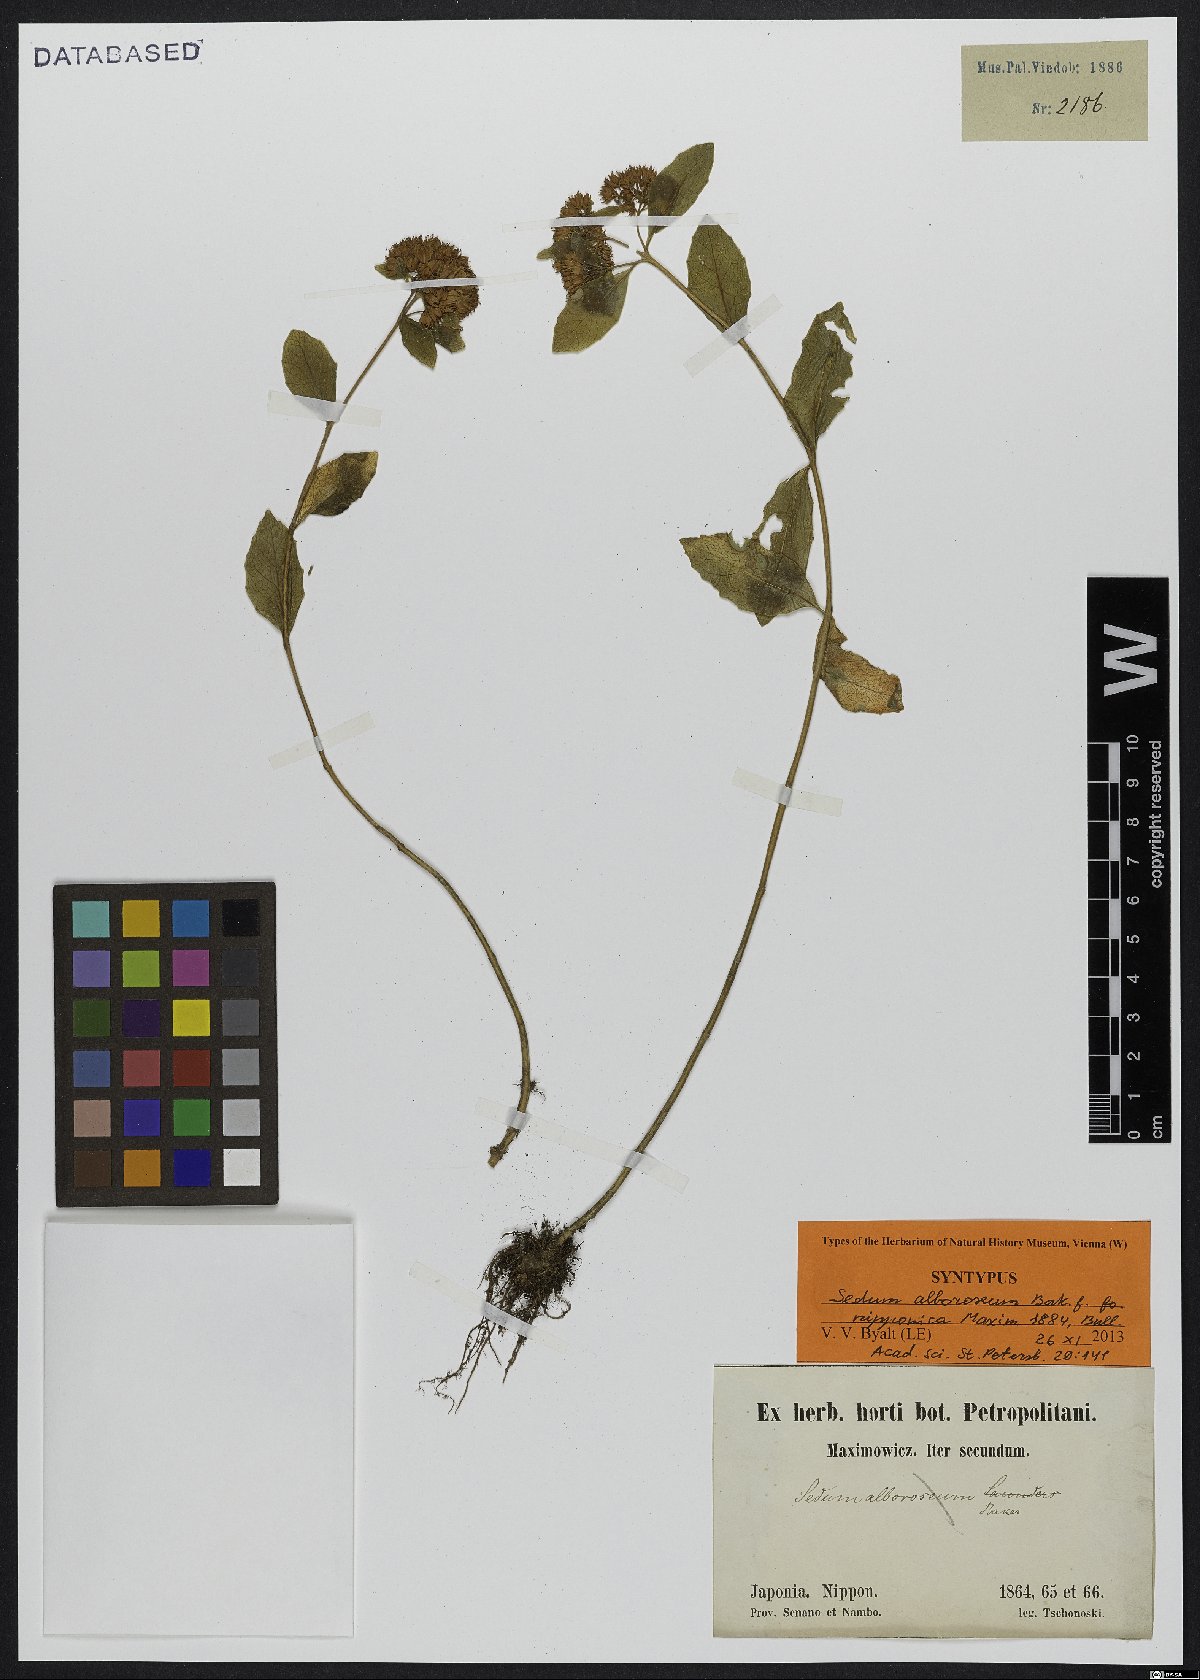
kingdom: Plantae
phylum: Tracheophyta
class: Magnoliopsida
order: Saxifragales
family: Crassulaceae
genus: Hylotelephium
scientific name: Hylotelephium erythrostictum
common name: Garden stonecrop
